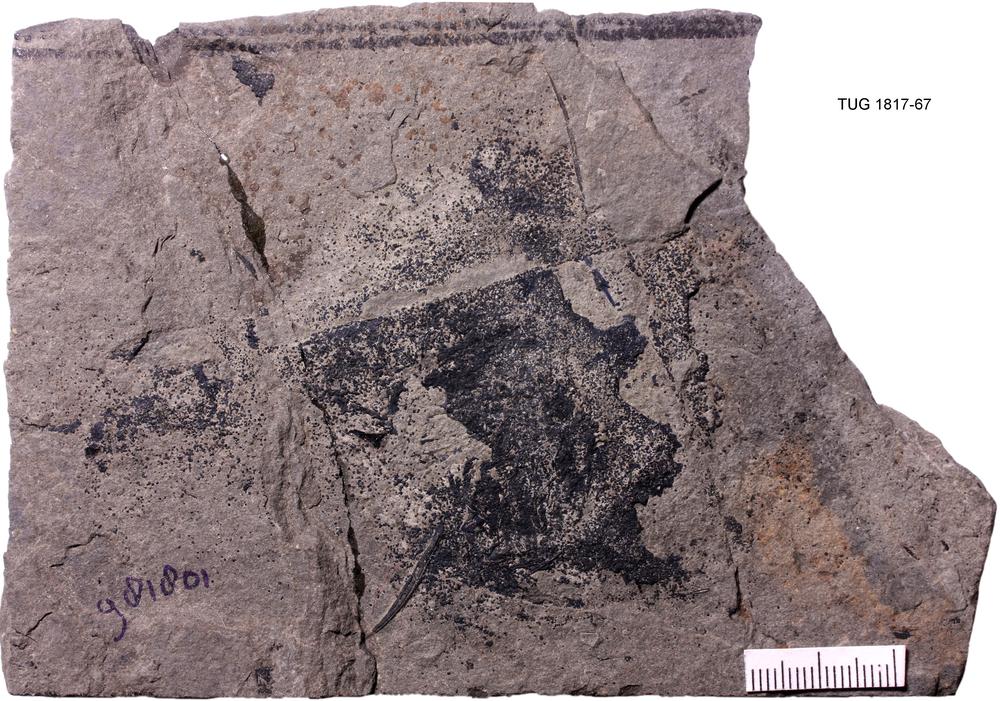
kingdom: Animalia
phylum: Chordata
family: Acanthodidae
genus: Cheiracanthus
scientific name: Cheiracanthus murchisoni
